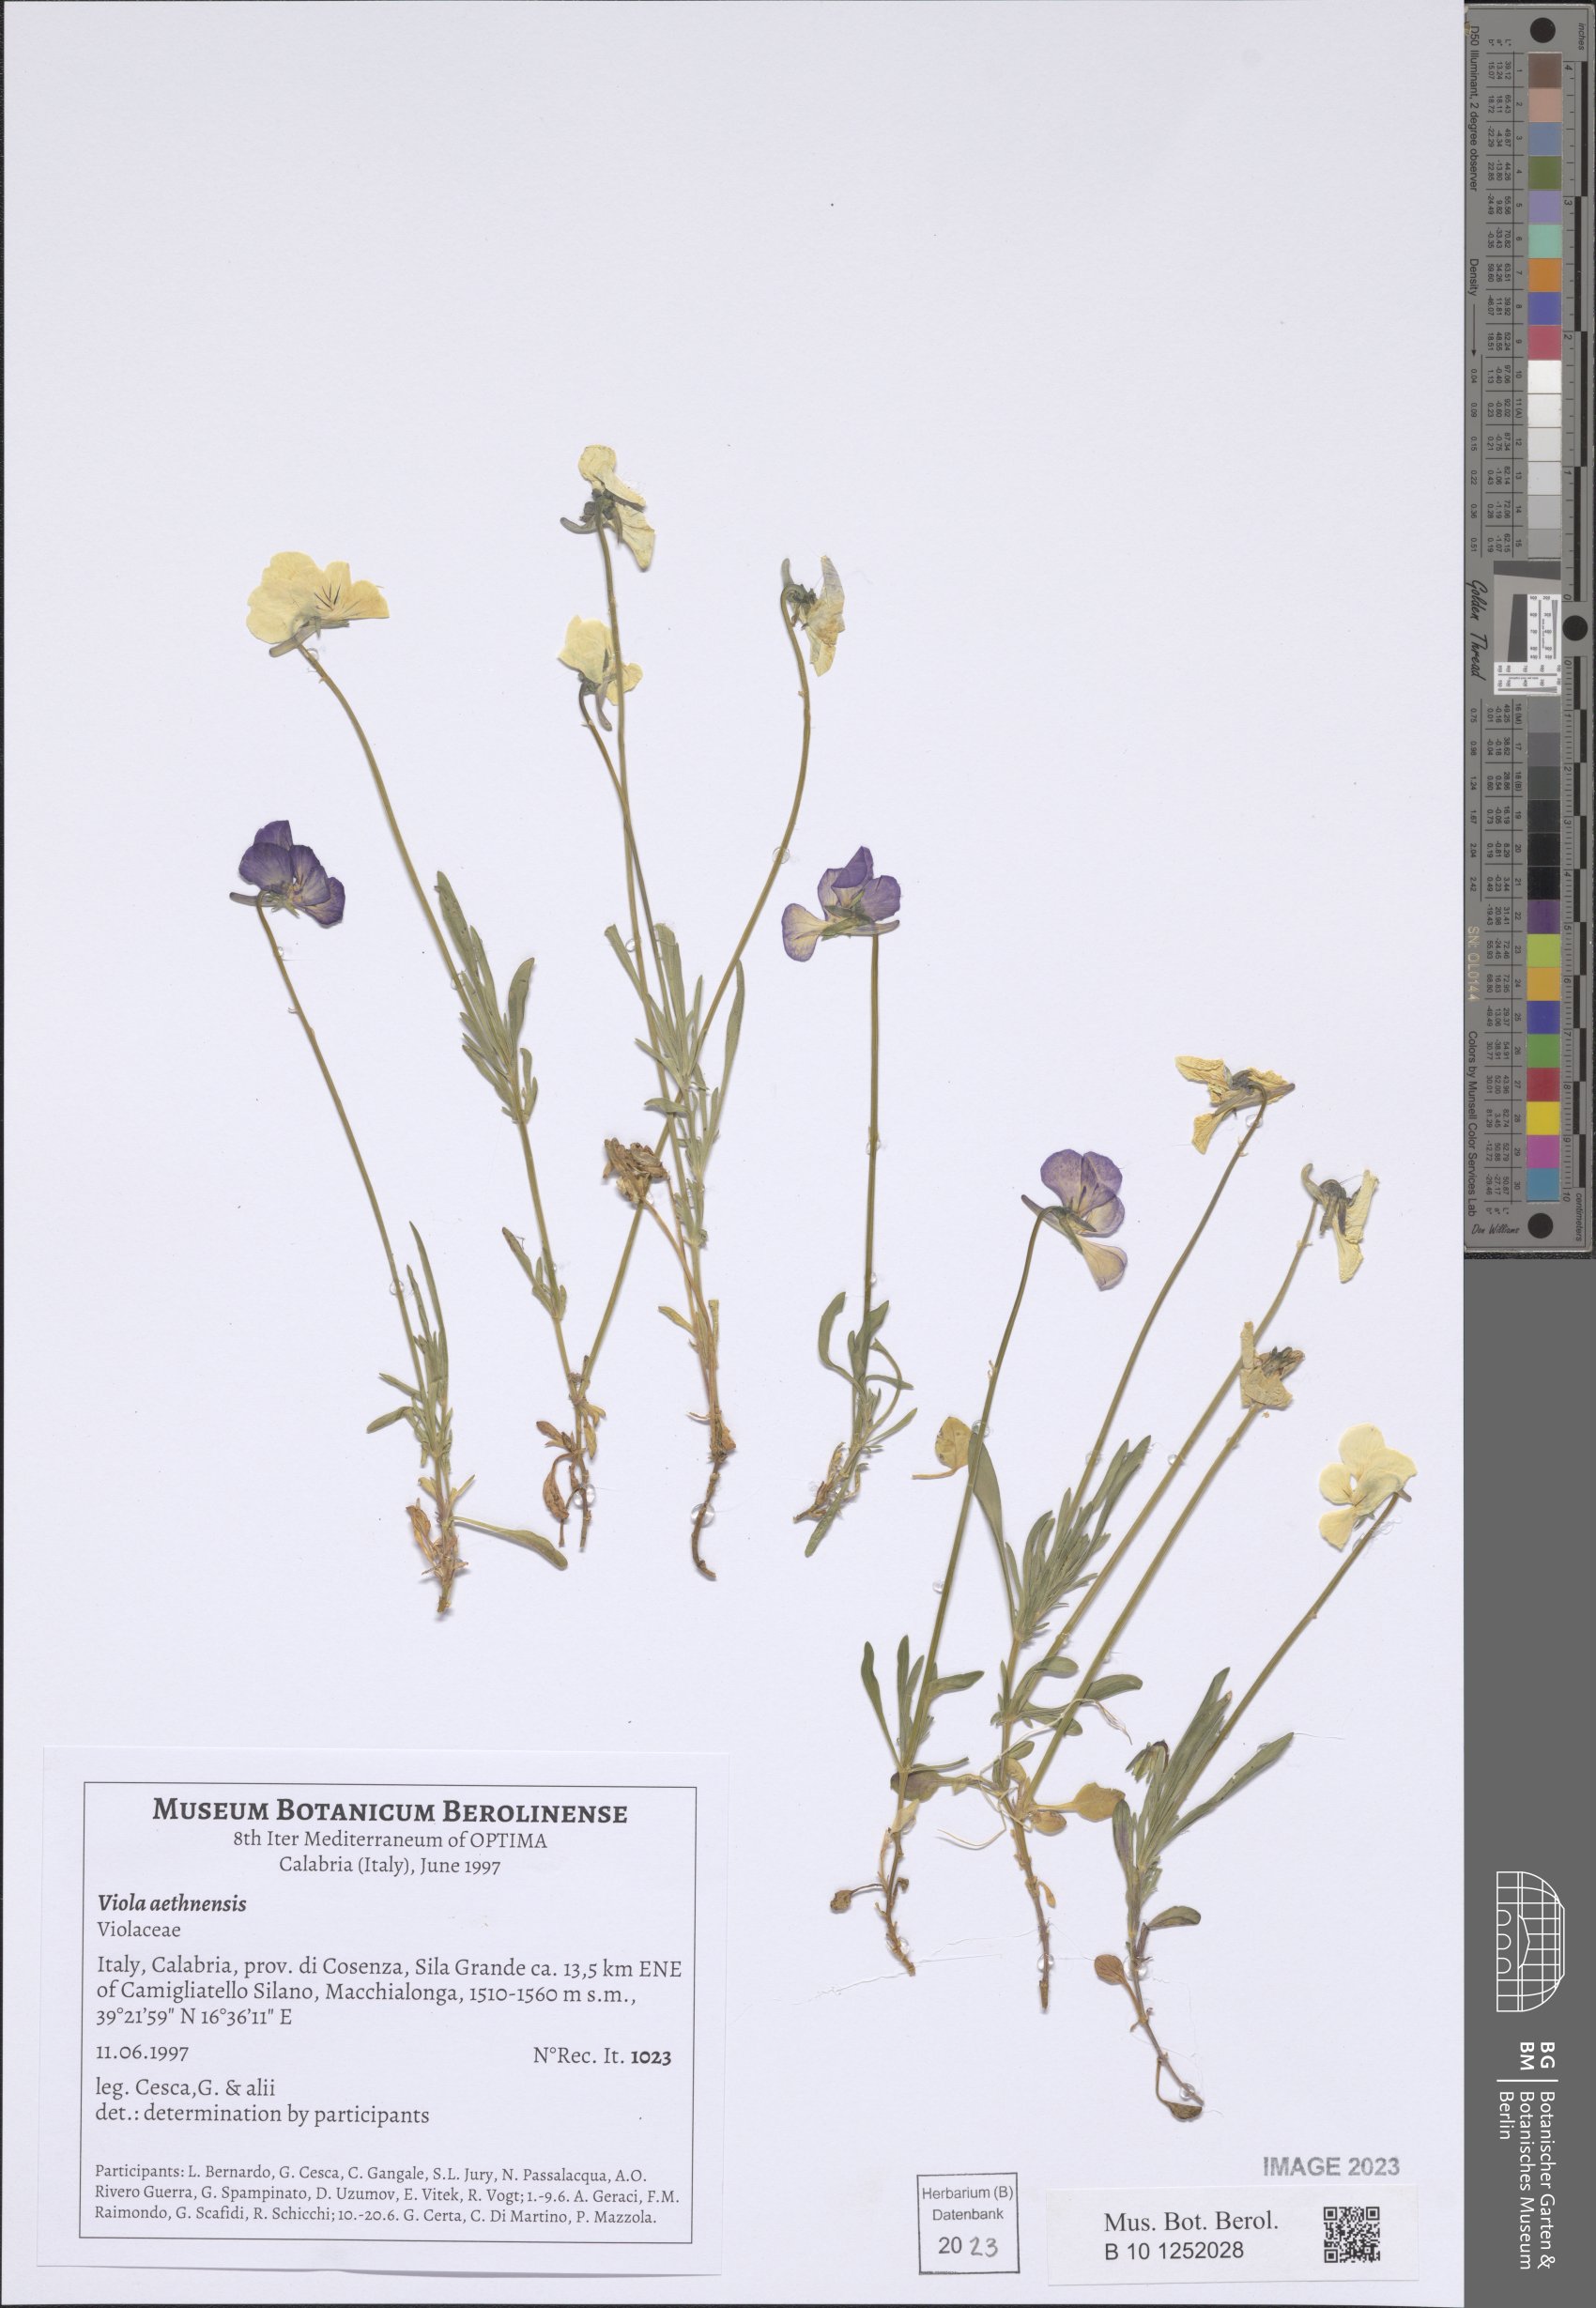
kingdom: Plantae
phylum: Tracheophyta
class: Magnoliopsida
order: Malpighiales
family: Violaceae
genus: Viola
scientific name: Viola aethnensis
